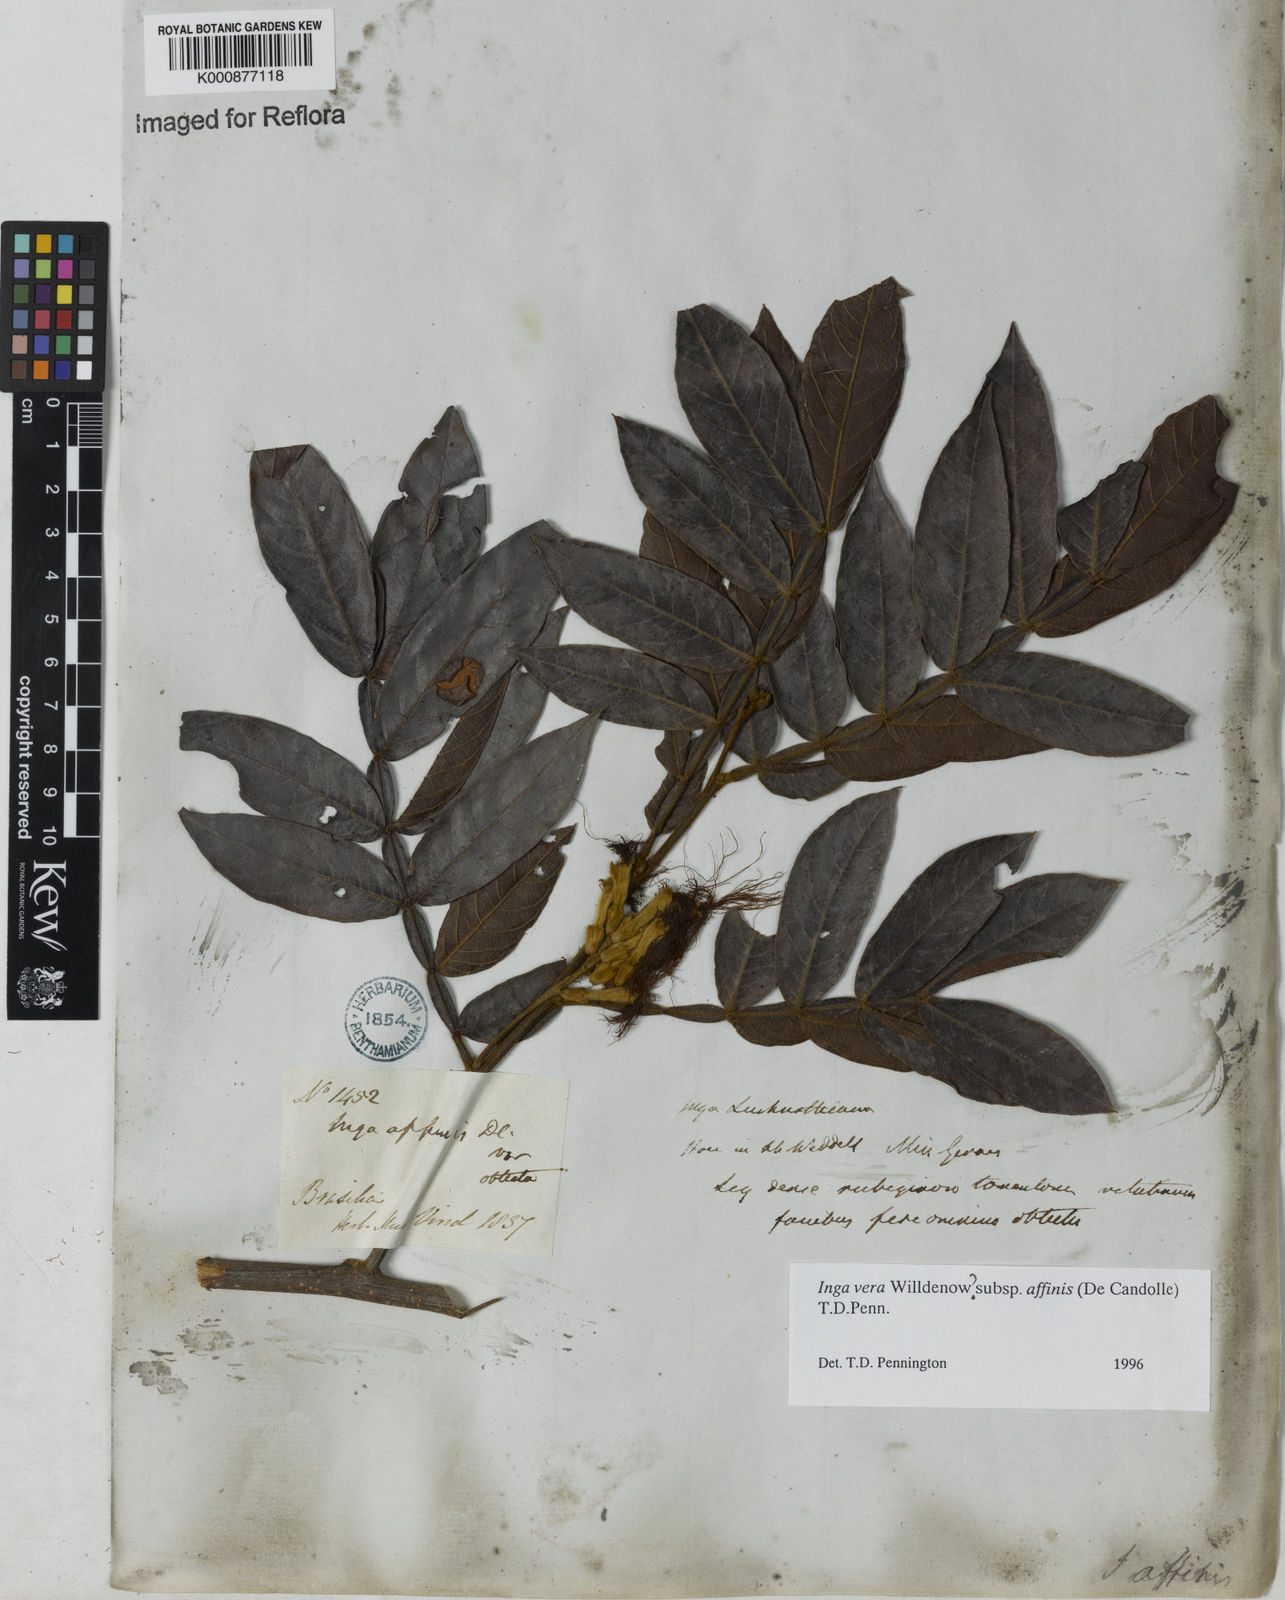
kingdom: Plantae
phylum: Tracheophyta
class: Magnoliopsida
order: Fabales
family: Fabaceae
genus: Inga
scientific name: Inga affinis
